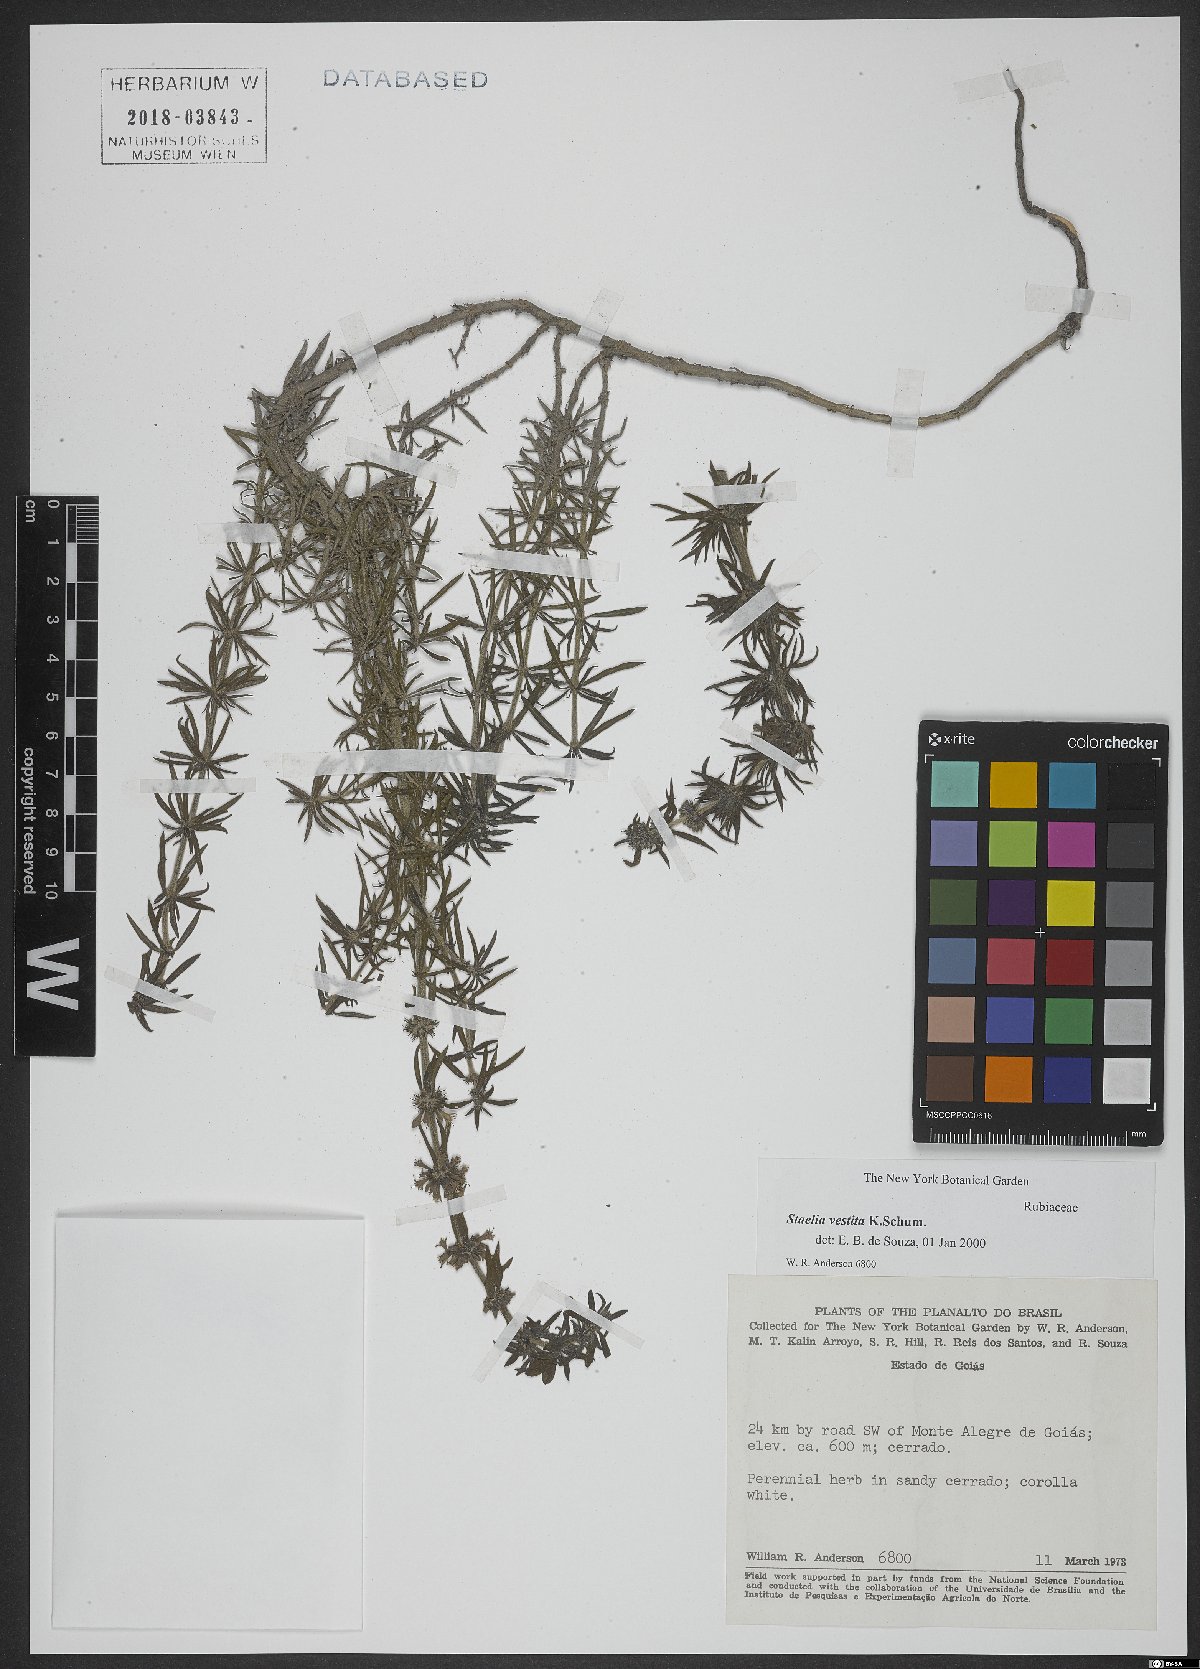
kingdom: Plantae
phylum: Tracheophyta
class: Magnoliopsida
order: Gentianales
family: Rubiaceae
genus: Staelia
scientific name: Staelia vestita
